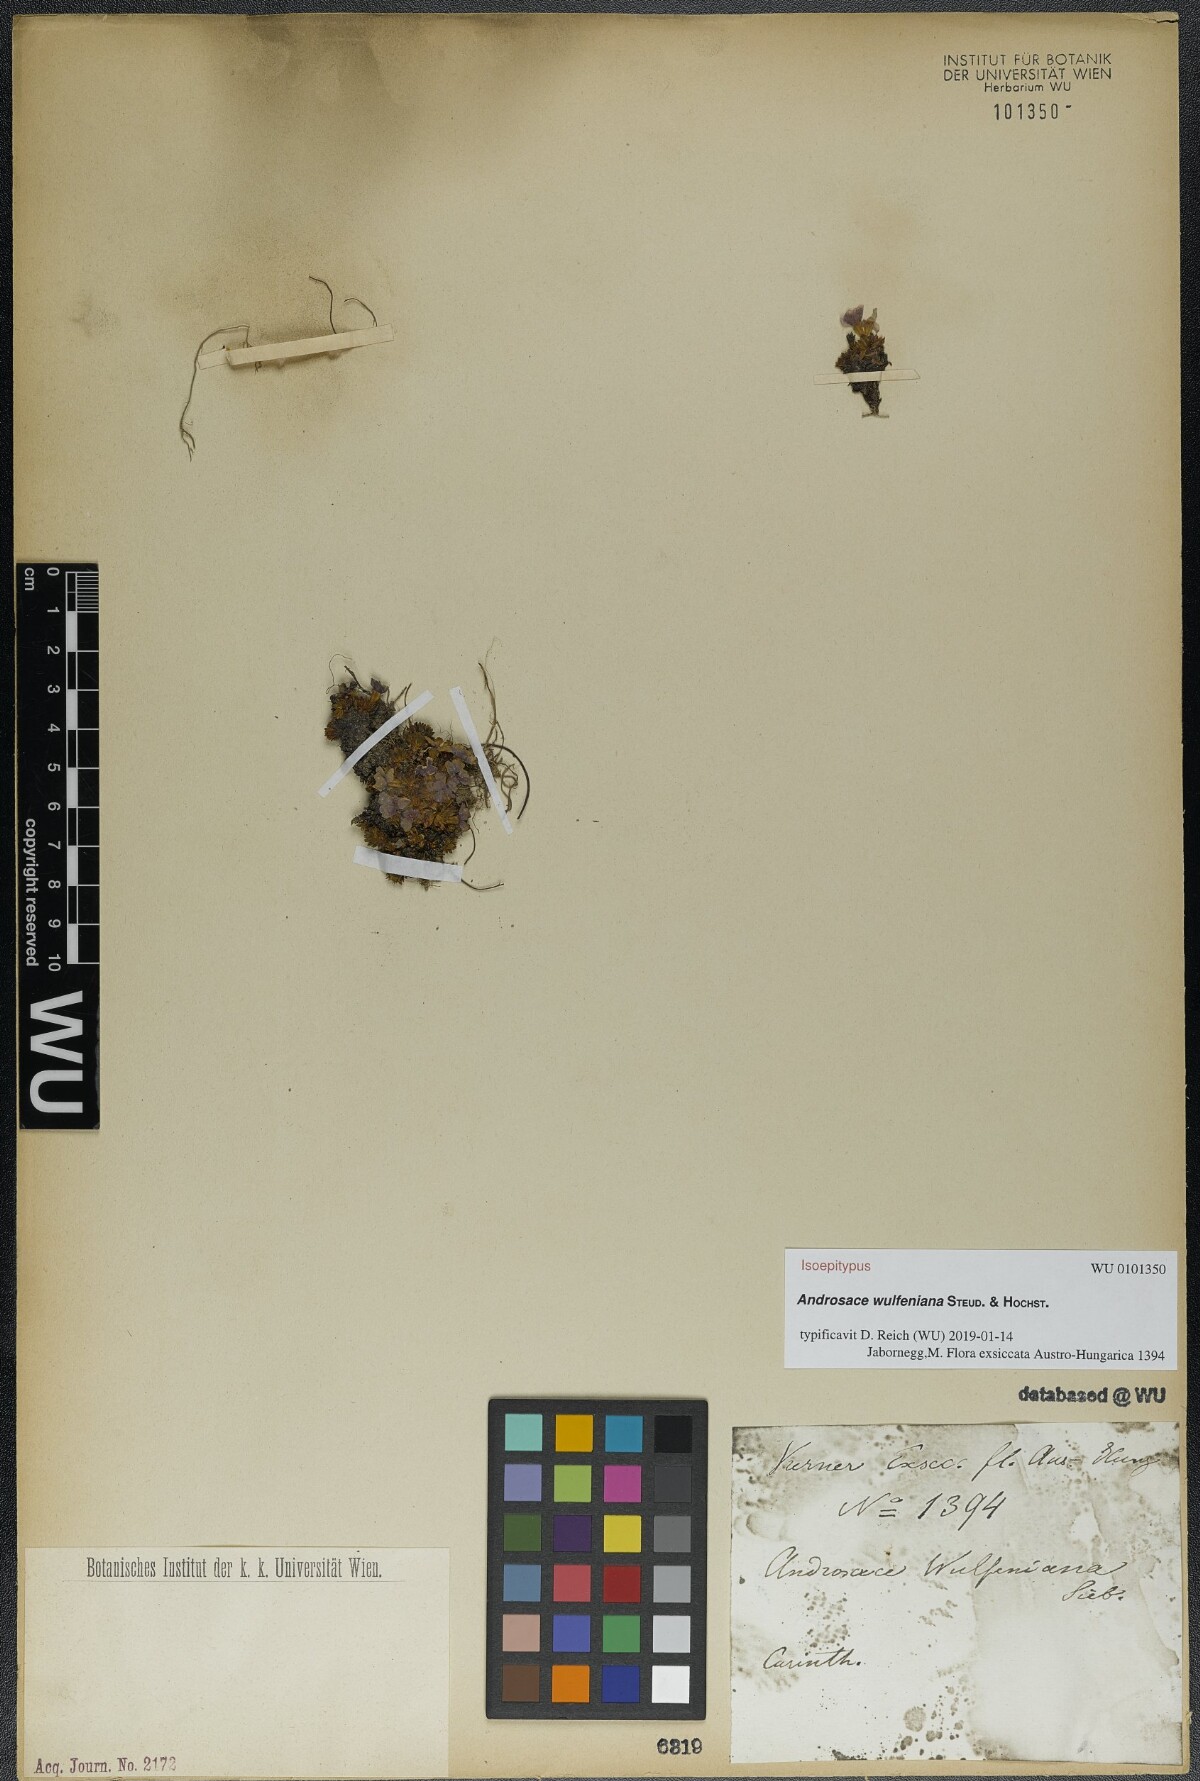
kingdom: Plantae
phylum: Tracheophyta
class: Magnoliopsida
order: Ericales
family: Primulaceae
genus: Androsace
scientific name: Androsace wulfeniana
